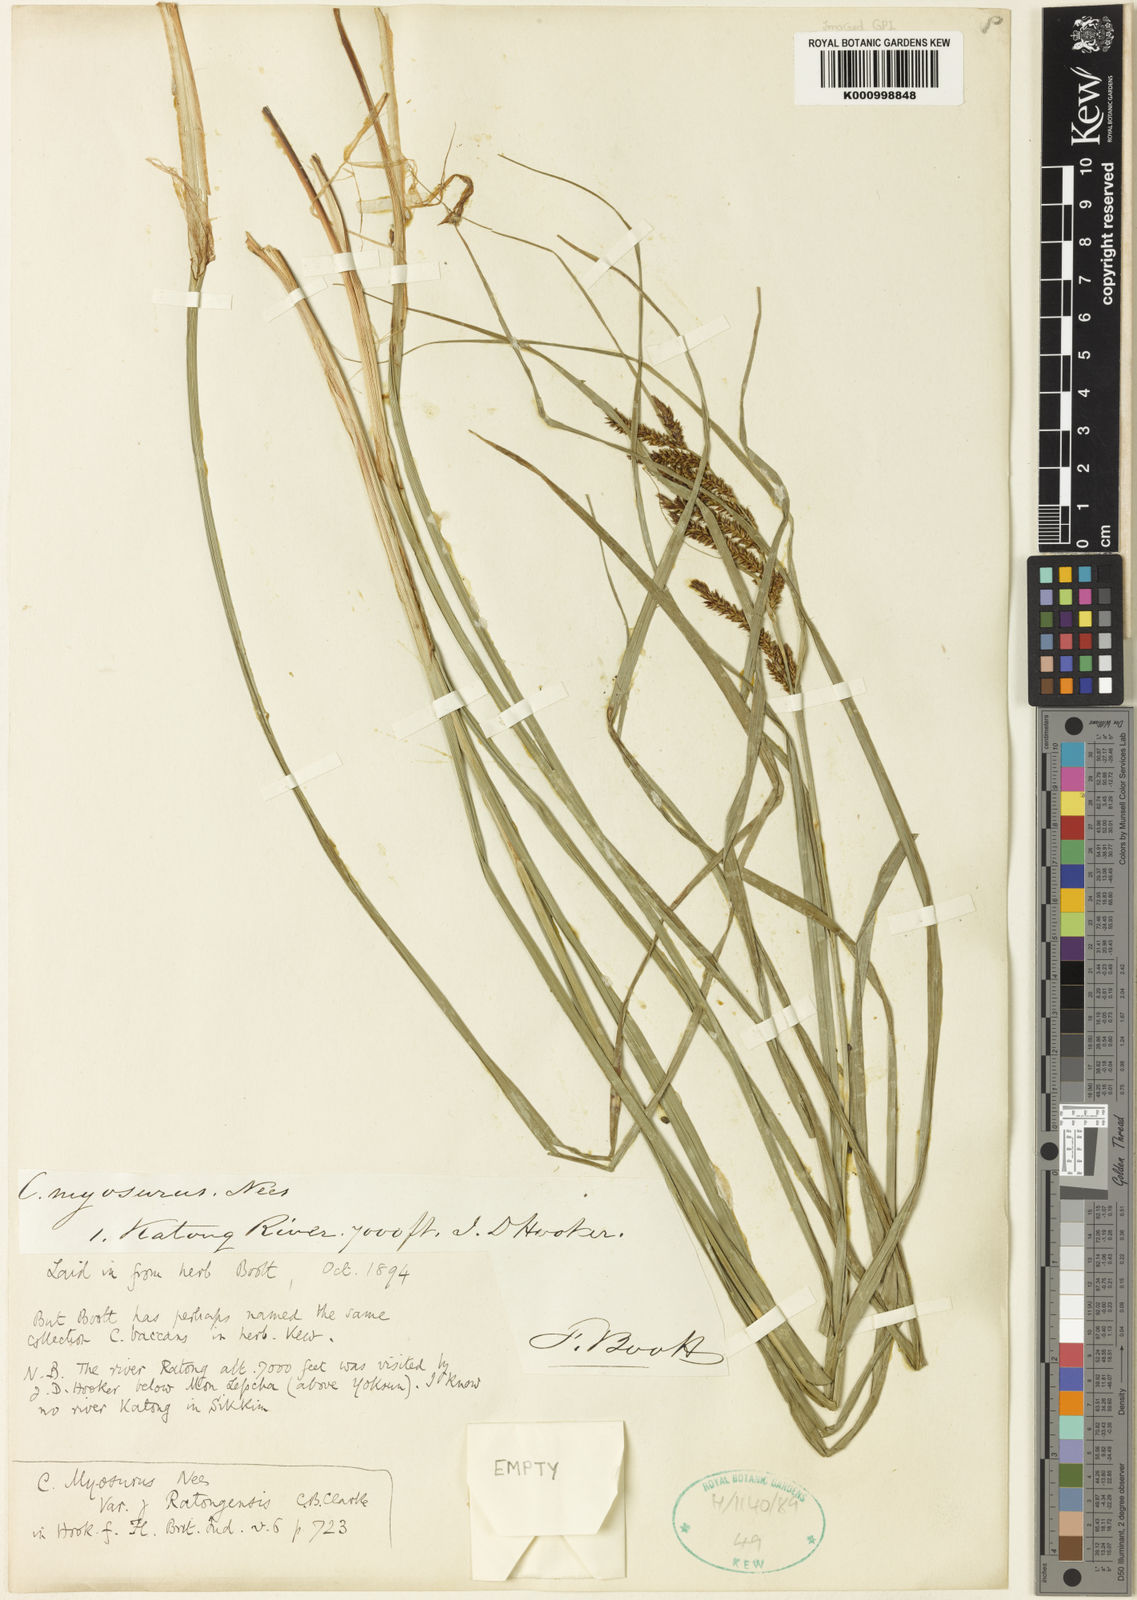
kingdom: Plantae
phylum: Tracheophyta
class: Liliopsida
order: Poales
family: Cyperaceae
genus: Carex
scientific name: Carex ratongensis
